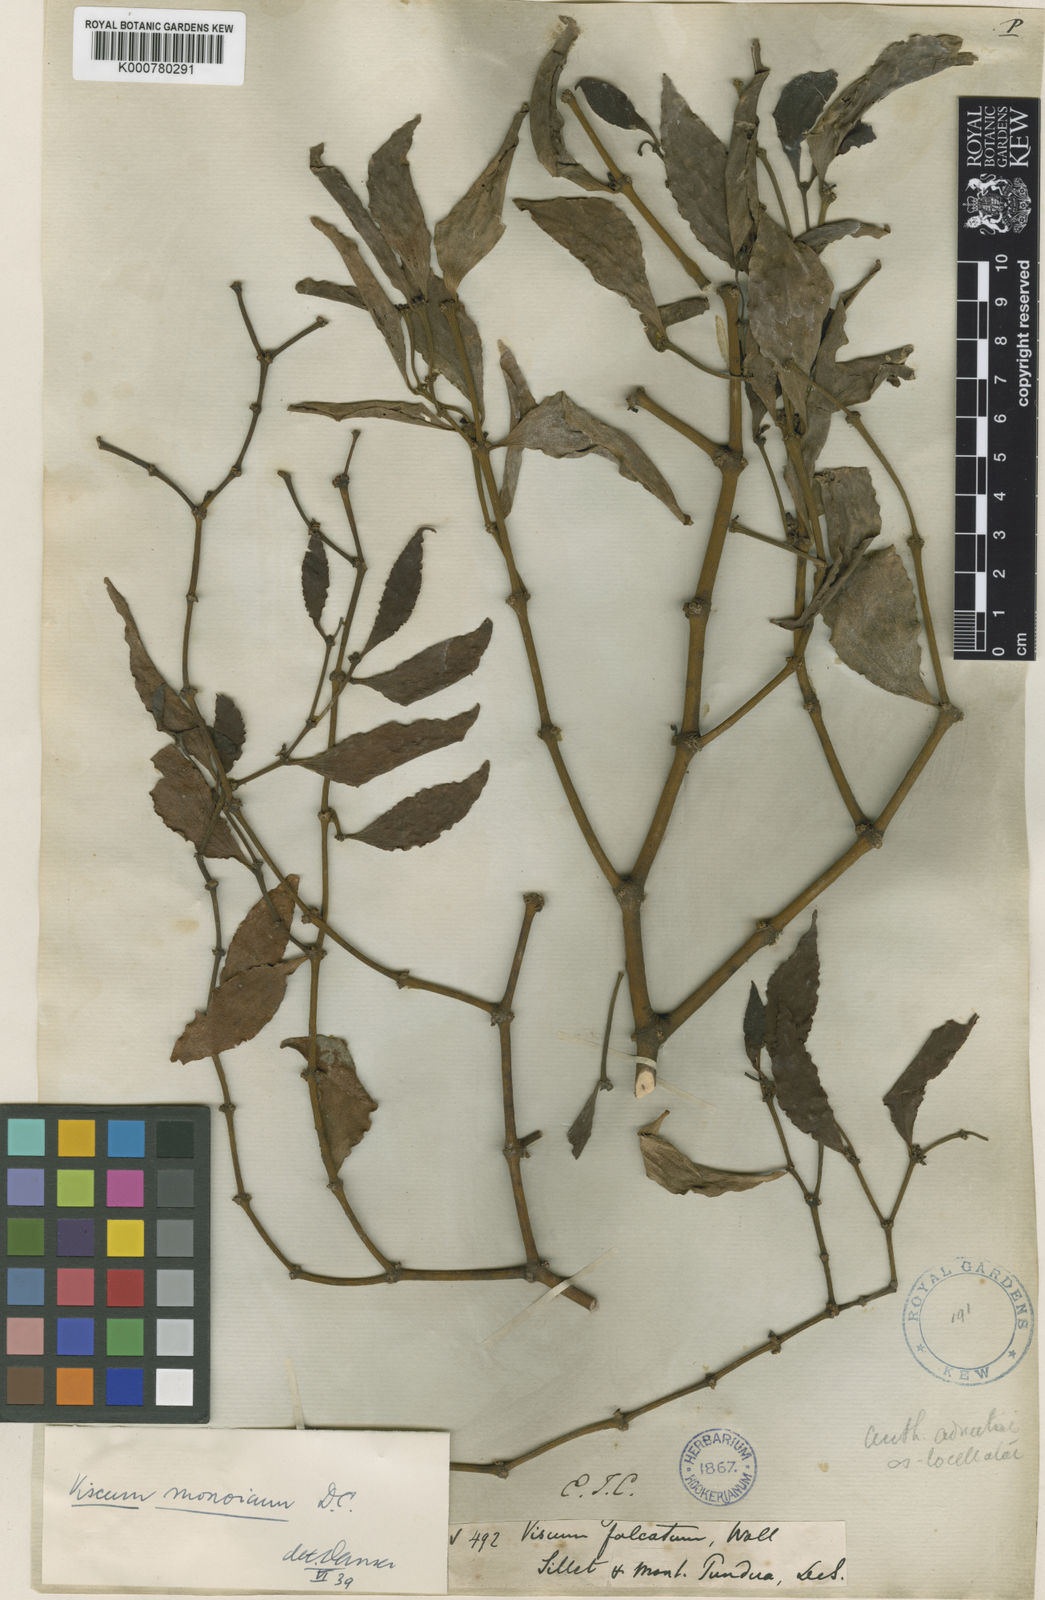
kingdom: Plantae
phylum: Tracheophyta
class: Magnoliopsida
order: Santalales
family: Viscaceae
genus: Viscum
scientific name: Viscum monoicum
